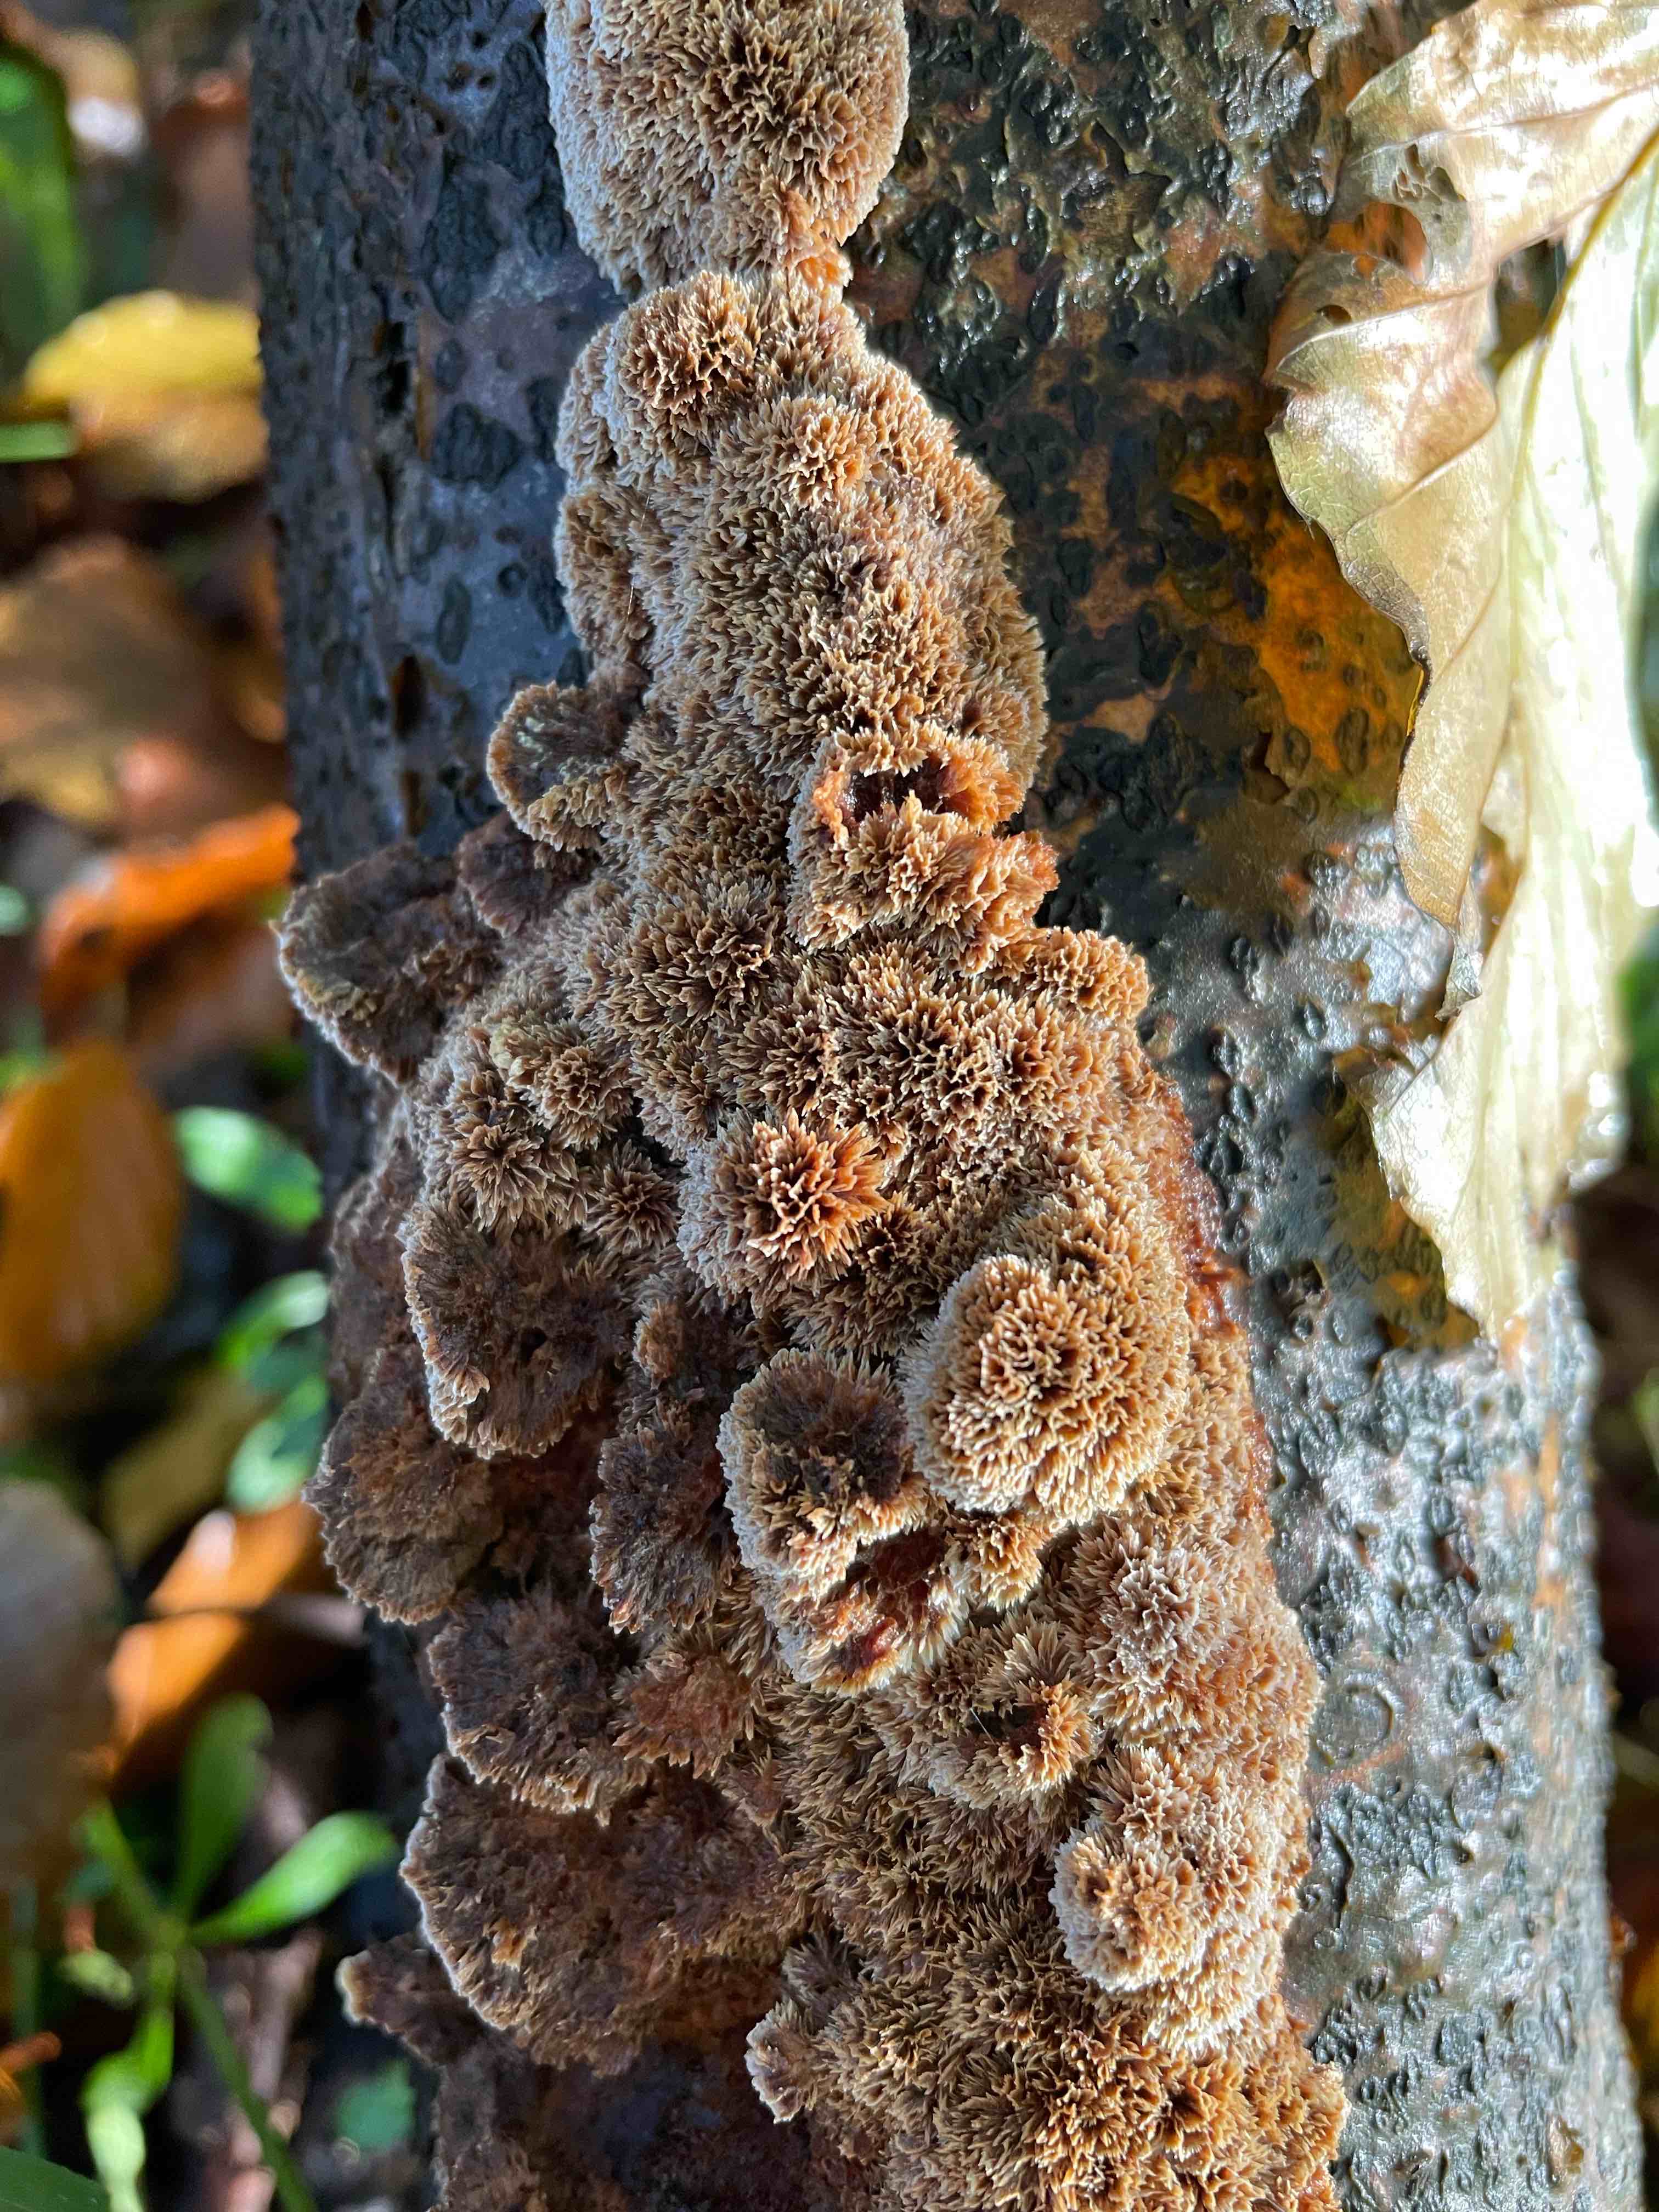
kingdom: Fungi
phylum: Basidiomycota
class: Agaricomycetes
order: Hymenochaetales
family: Hymenochaetaceae
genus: Mensularia
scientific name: Mensularia nodulosa
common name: bøge-spejlporesvamp
